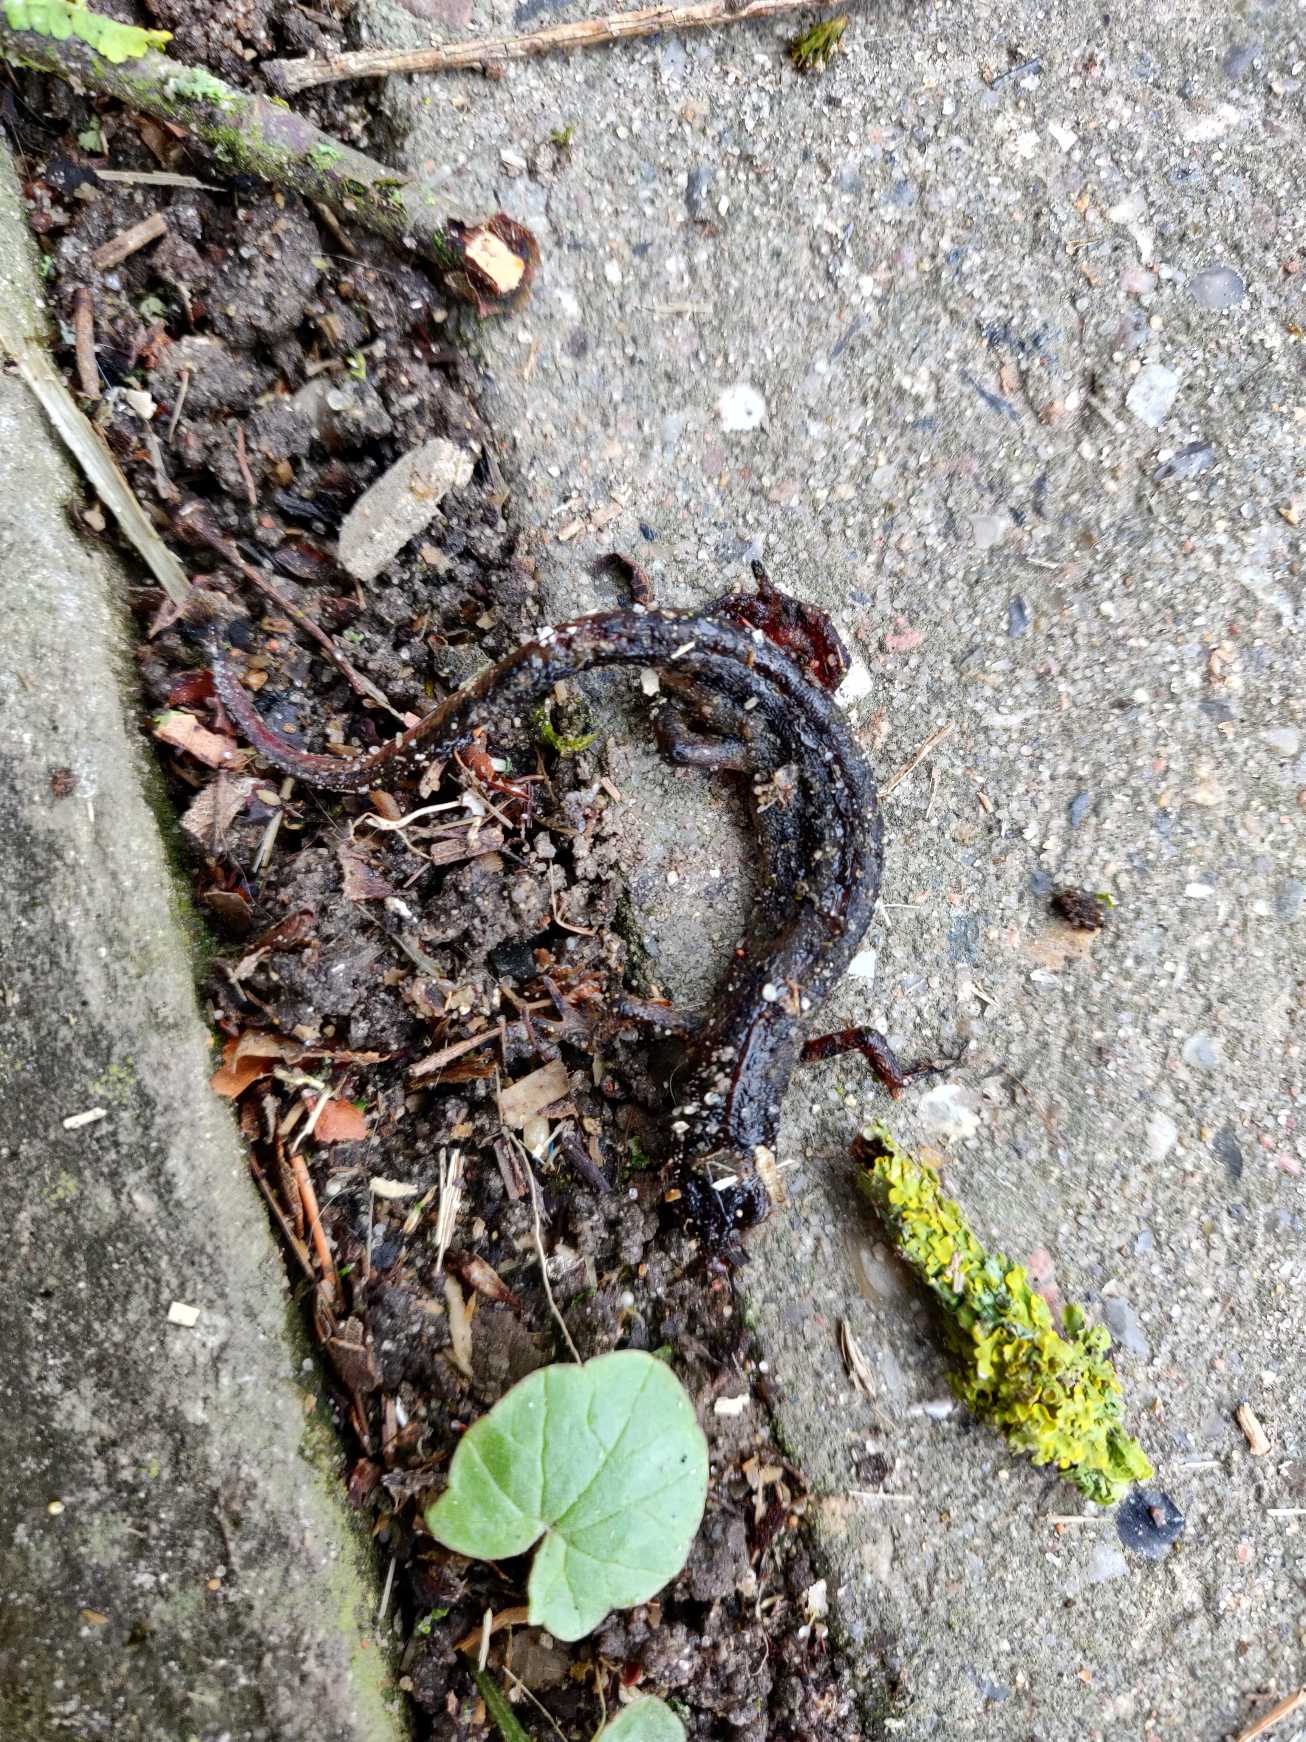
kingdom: Animalia
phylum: Chordata
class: Amphibia
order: Caudata
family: Salamandridae
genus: Lissotriton
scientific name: Lissotriton vulgaris
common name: Lille vandsalamander
